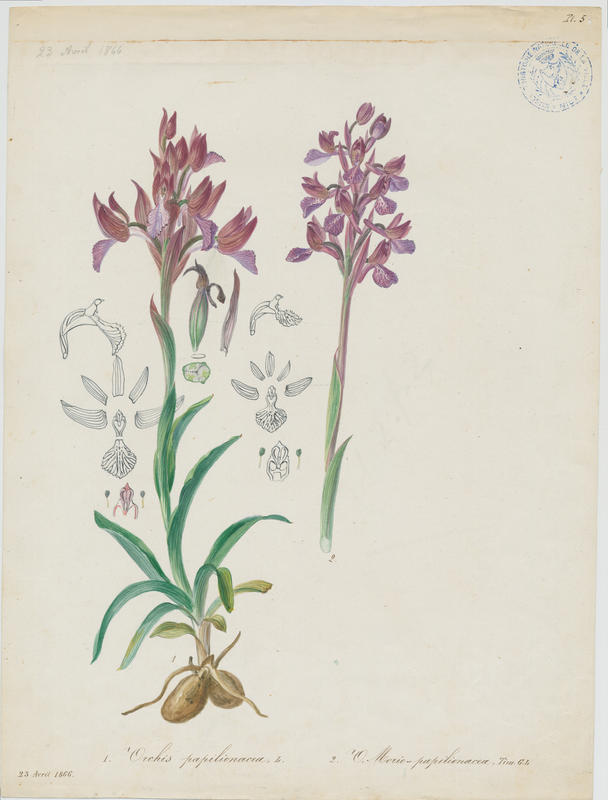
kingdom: Plantae
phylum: Tracheophyta
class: Liliopsida
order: Asparagales
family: Orchidaceae
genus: Anacamptis
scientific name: Anacamptis
